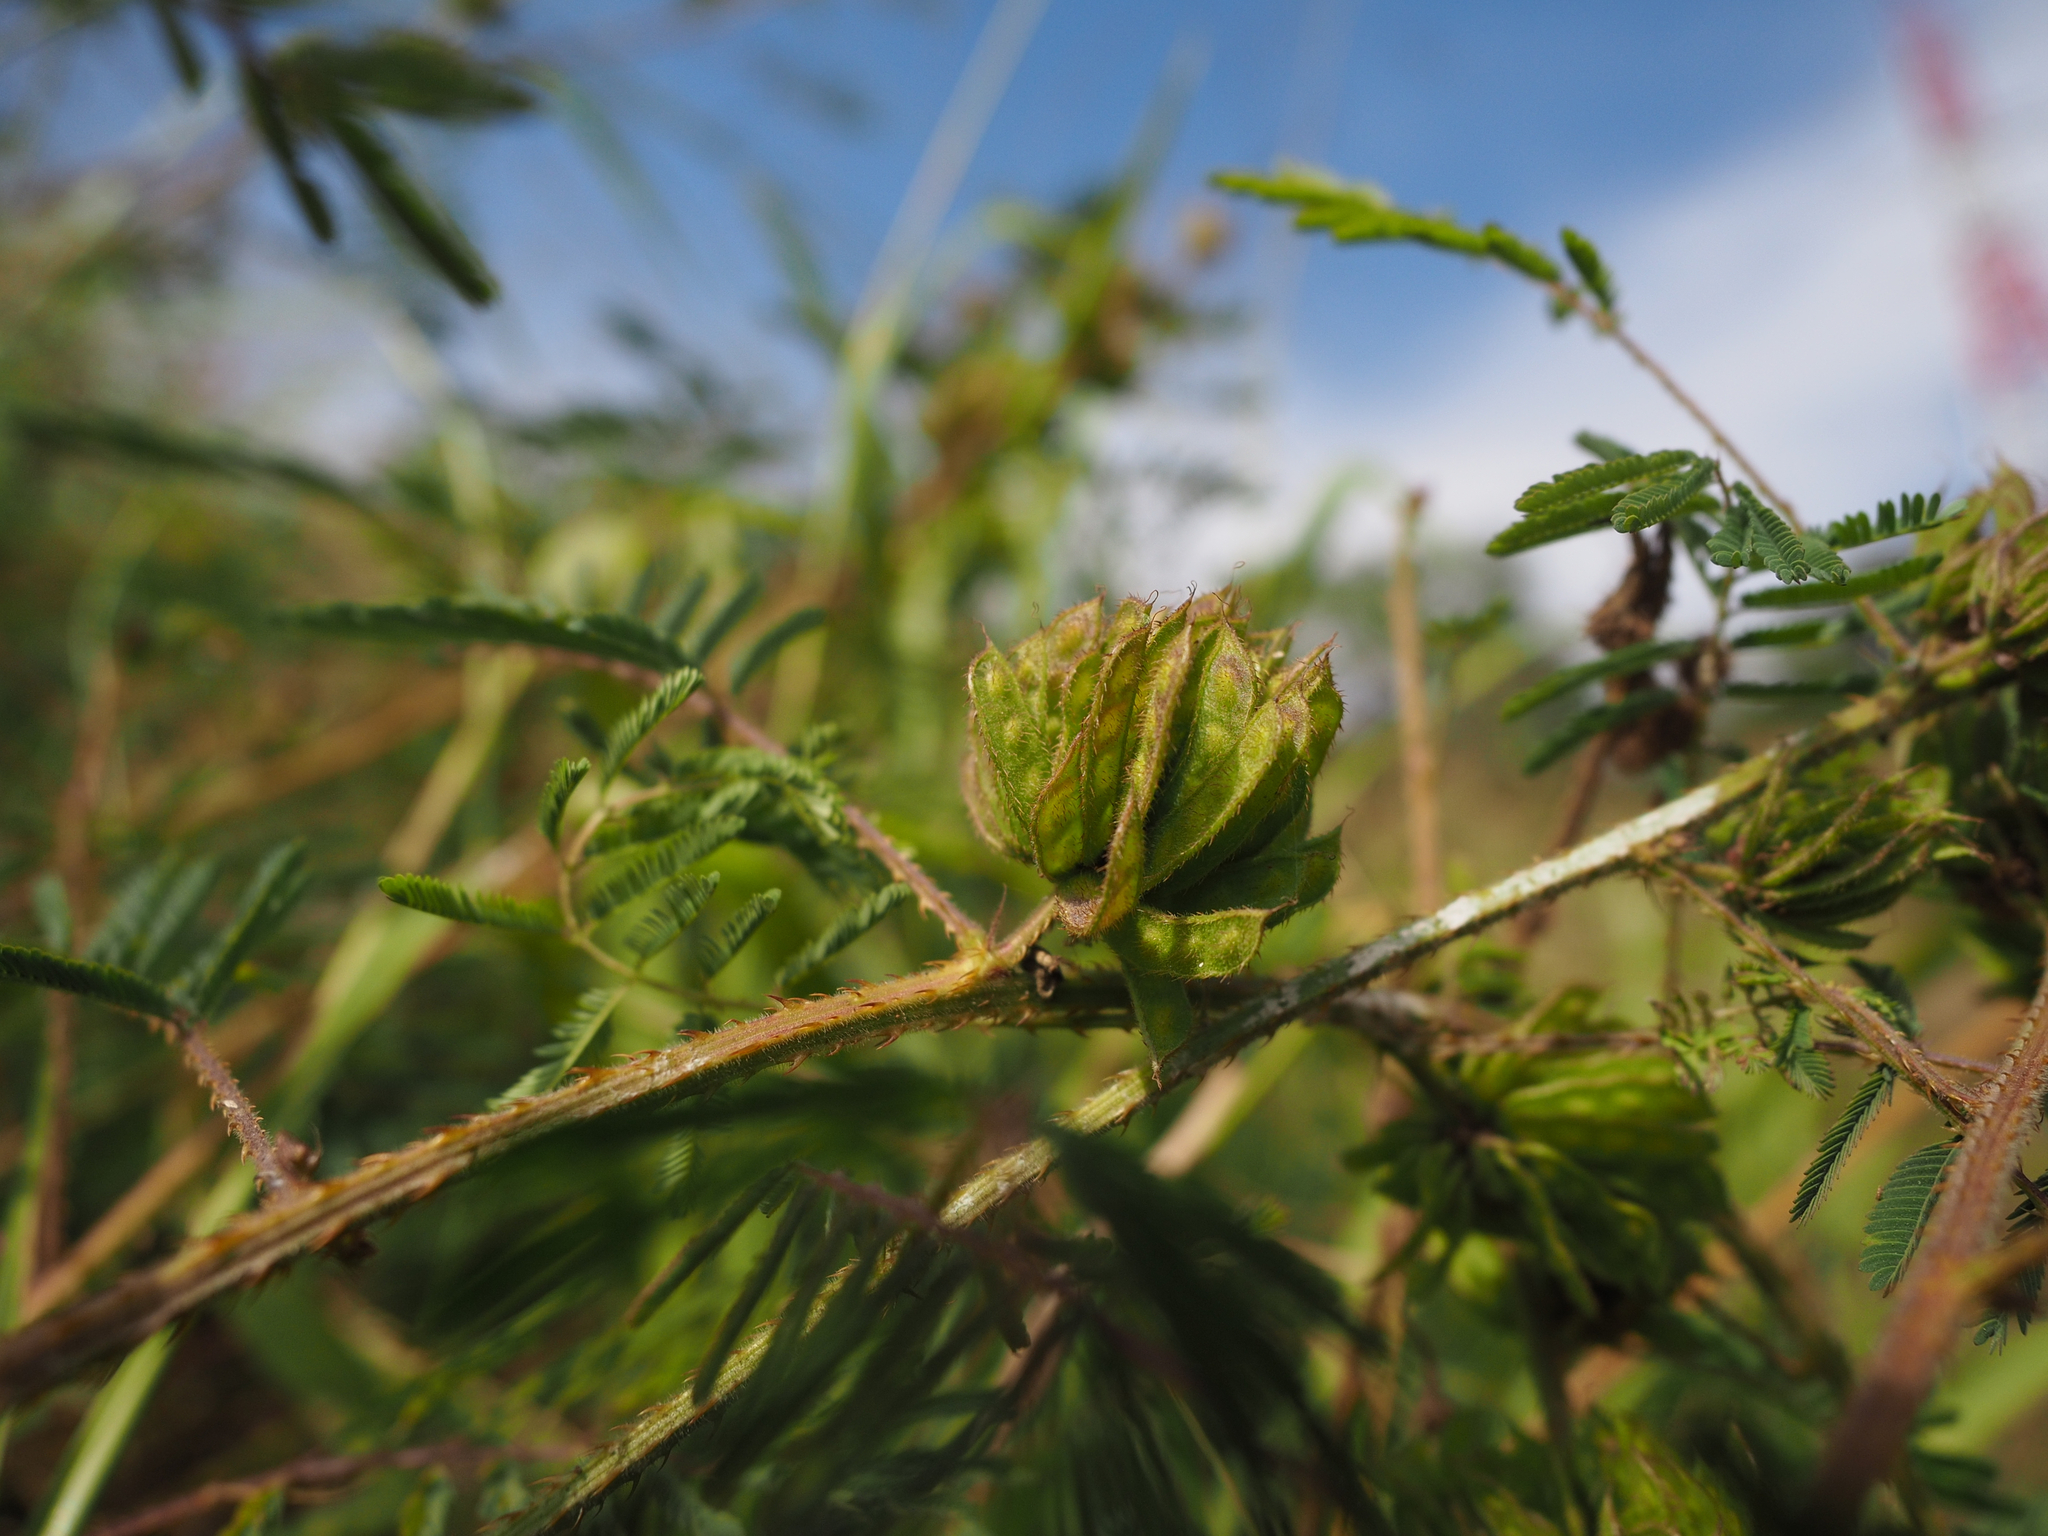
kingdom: Plantae
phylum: Tracheophyta
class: Magnoliopsida
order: Fabales
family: Fabaceae
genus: Mimosa
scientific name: Mimosa diplotricha
